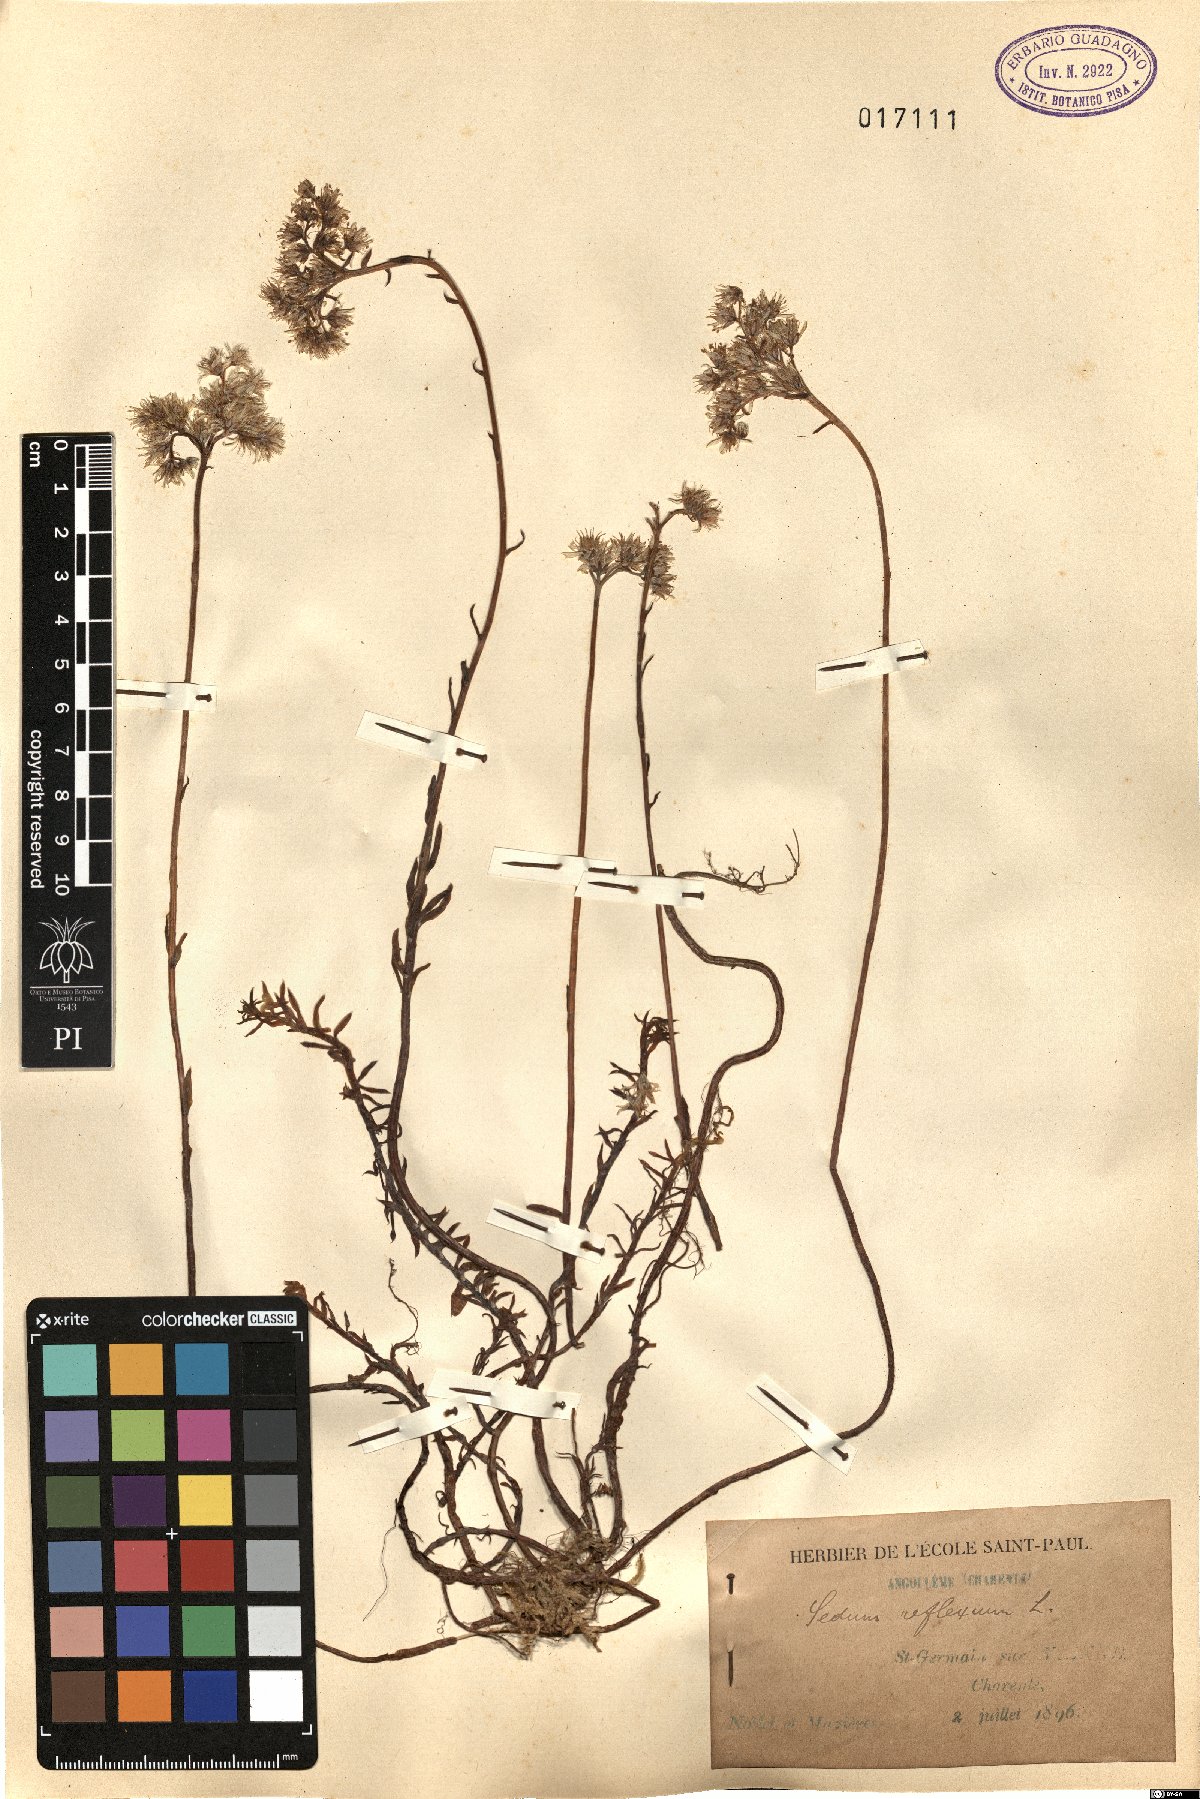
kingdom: Plantae
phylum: Tracheophyta
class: Magnoliopsida
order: Saxifragales
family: Crassulaceae
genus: Petrosedum
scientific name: Petrosedum rupestre
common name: Jenny's stonecrop
